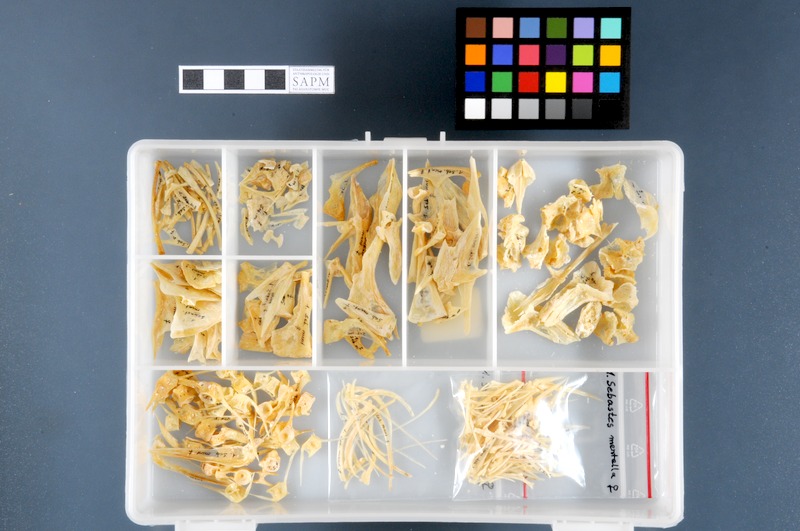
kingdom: Animalia
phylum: Chordata
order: Scorpaeniformes
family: Sebastidae
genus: Sebastes
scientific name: Sebastes mentella
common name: Deepwater redfish
